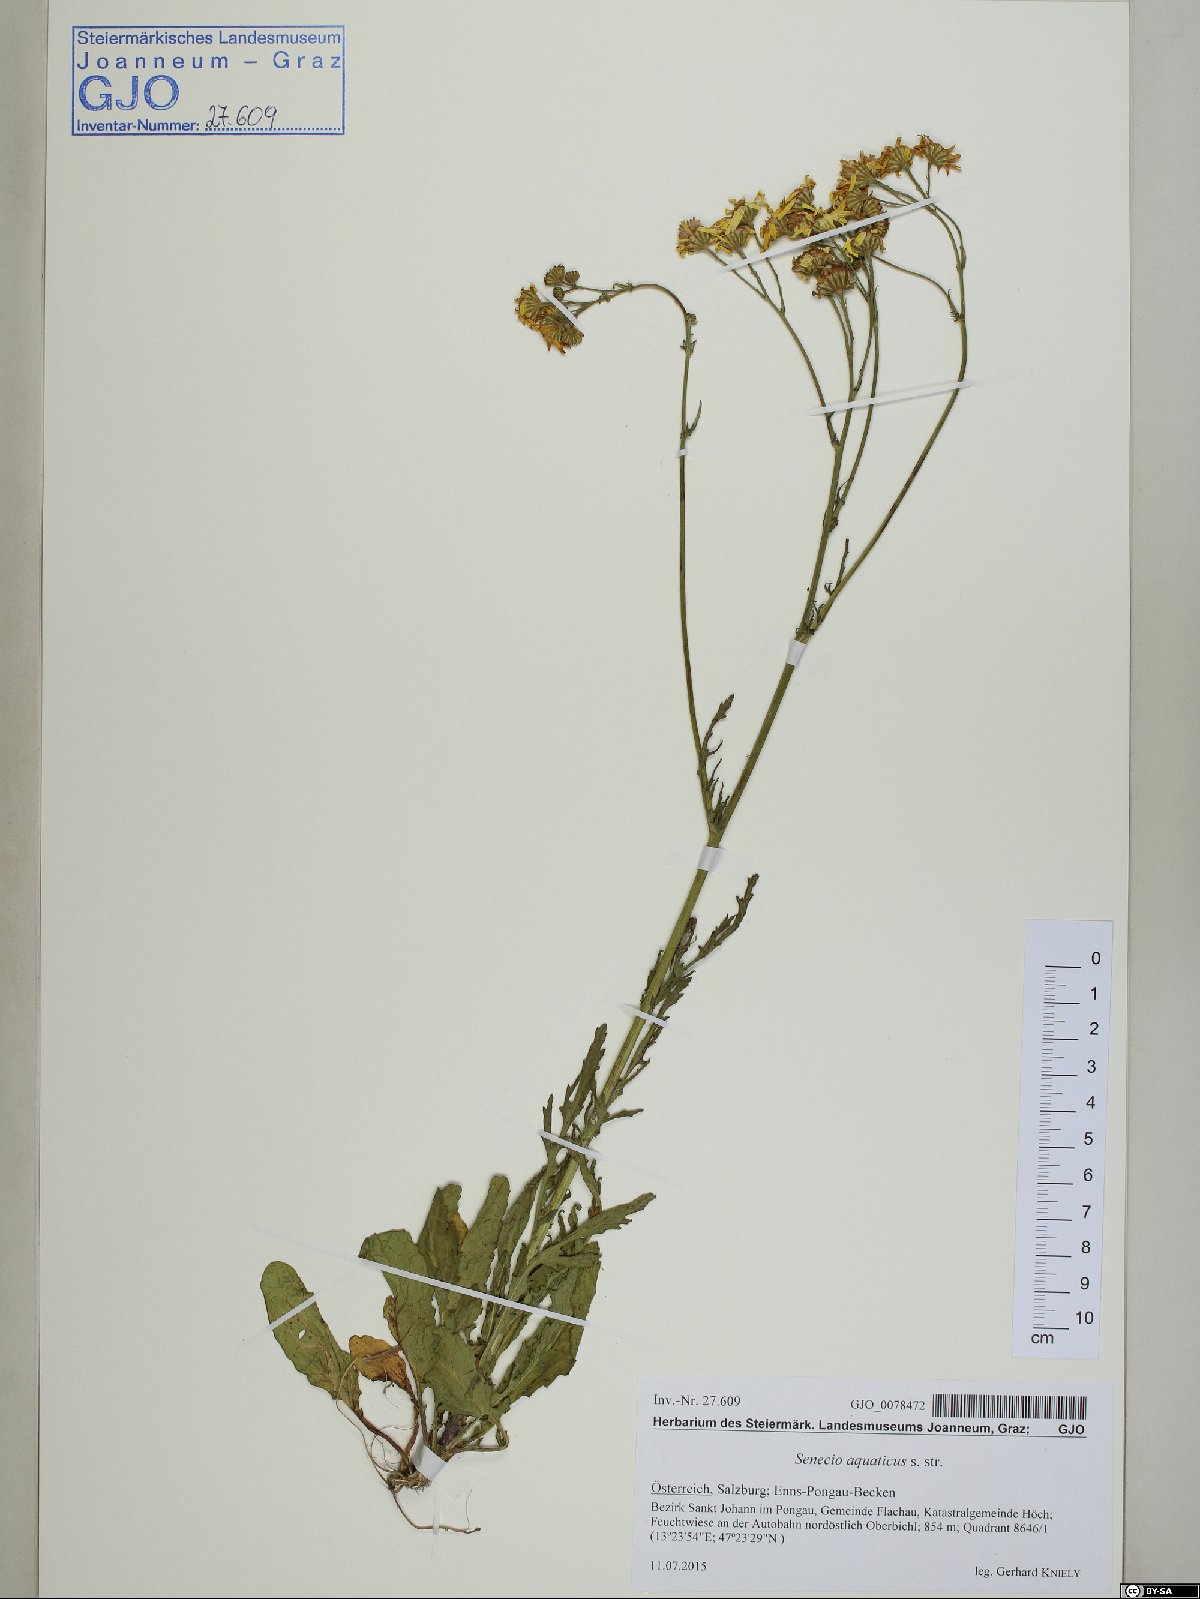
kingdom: Plantae
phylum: Tracheophyta
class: Magnoliopsida
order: Asterales
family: Asteraceae
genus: Jacobaea
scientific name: Jacobaea aquatica
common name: Water ragwort
